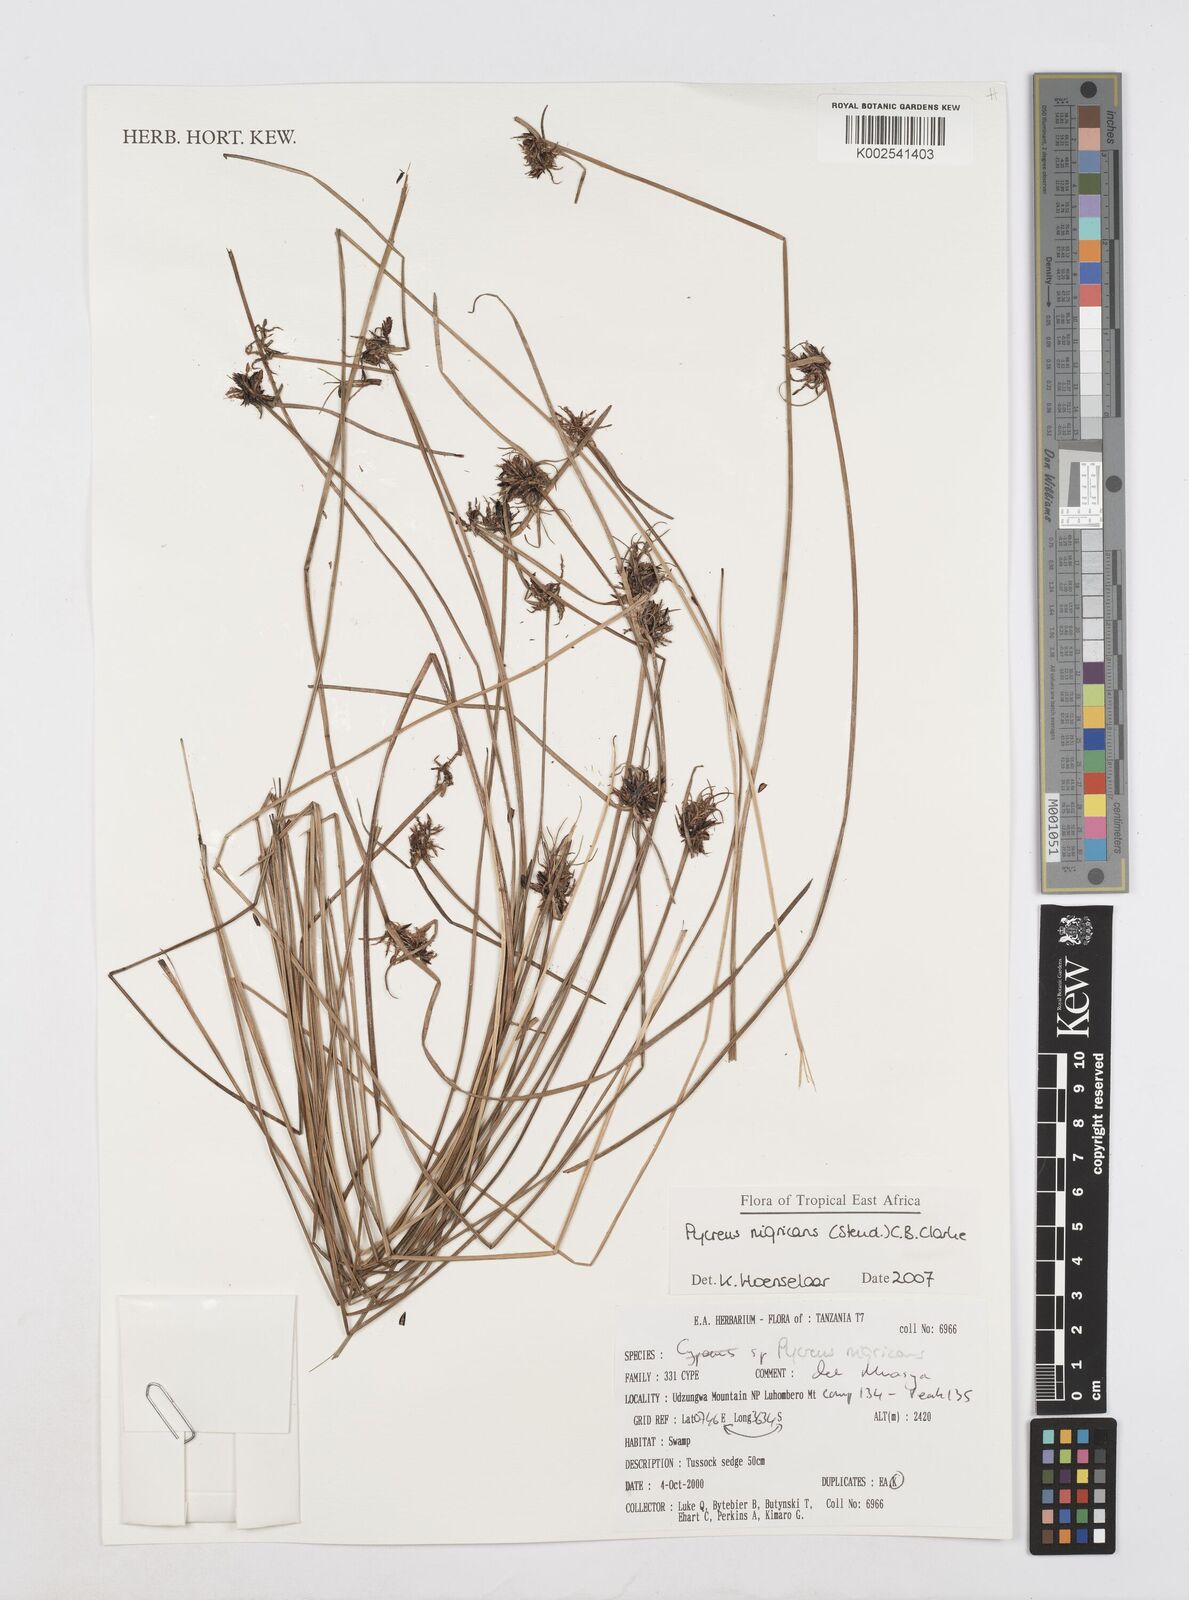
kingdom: Plantae
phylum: Tracheophyta
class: Liliopsida
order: Poales
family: Cyperaceae
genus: Cyperus
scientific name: Cyperus nigricans
